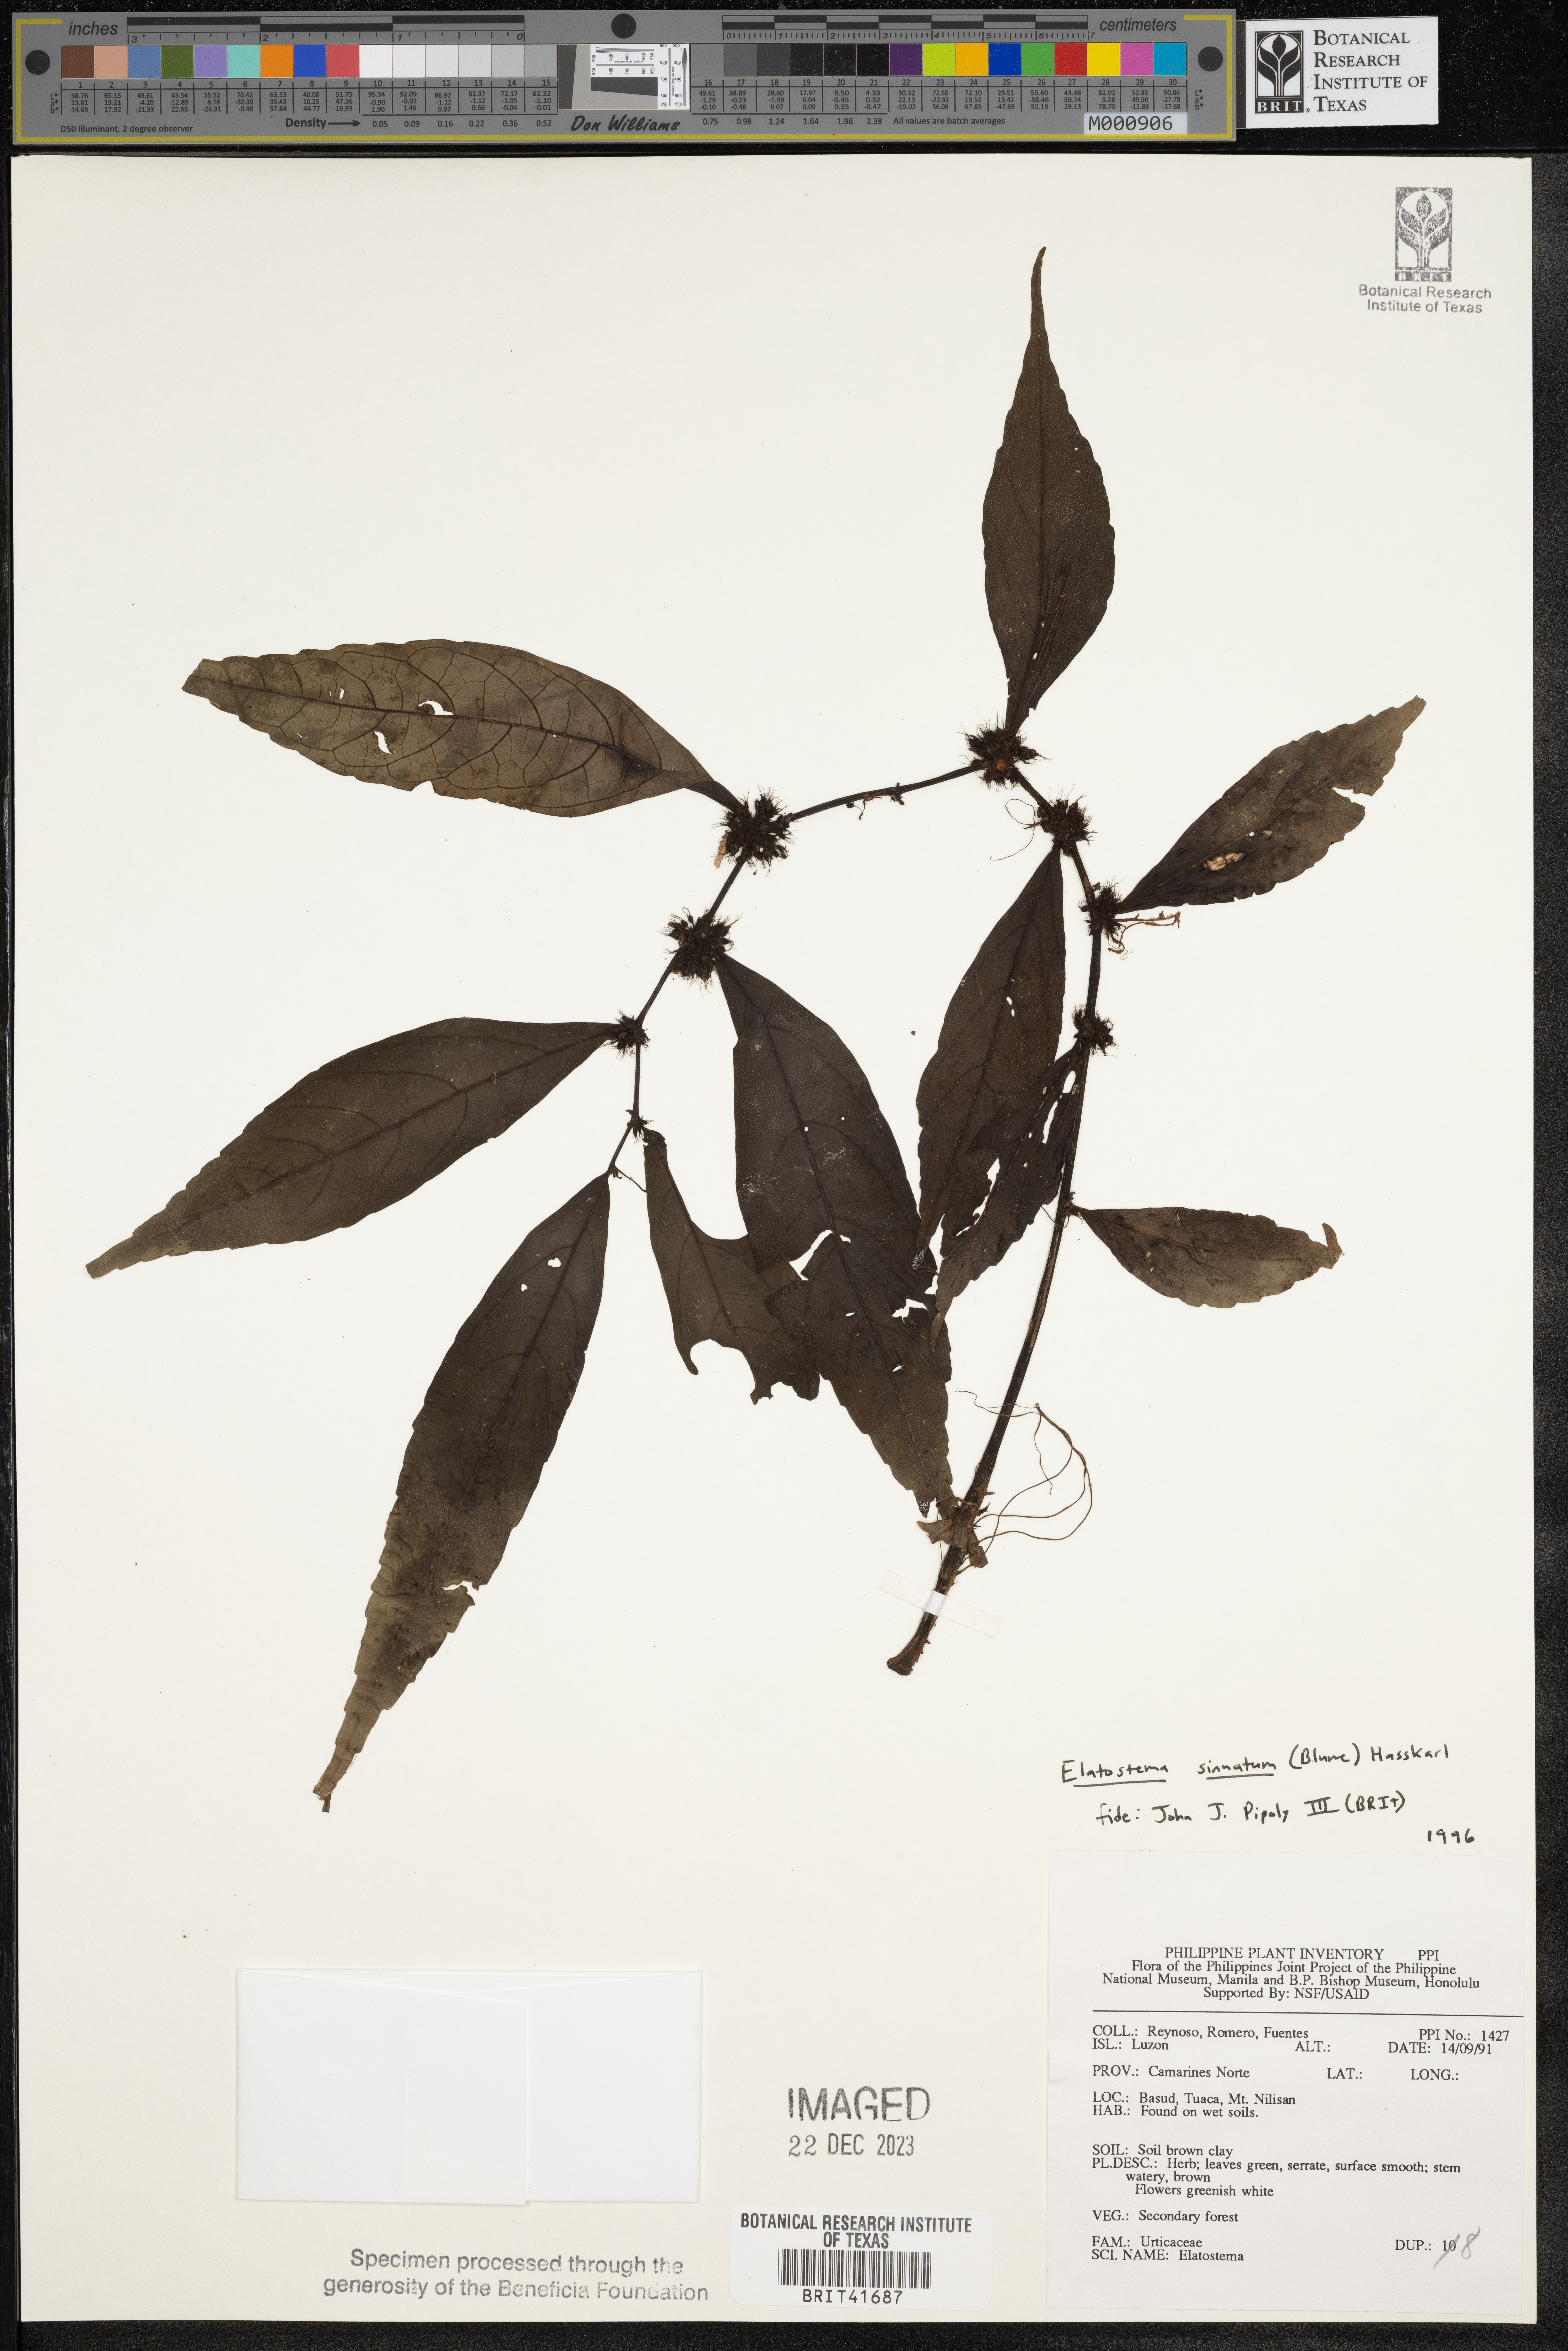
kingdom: Plantae
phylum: Tracheophyta
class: Magnoliopsida
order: Rosales
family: Urticaceae
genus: Elatostema
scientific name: Elatostema sinuatum
